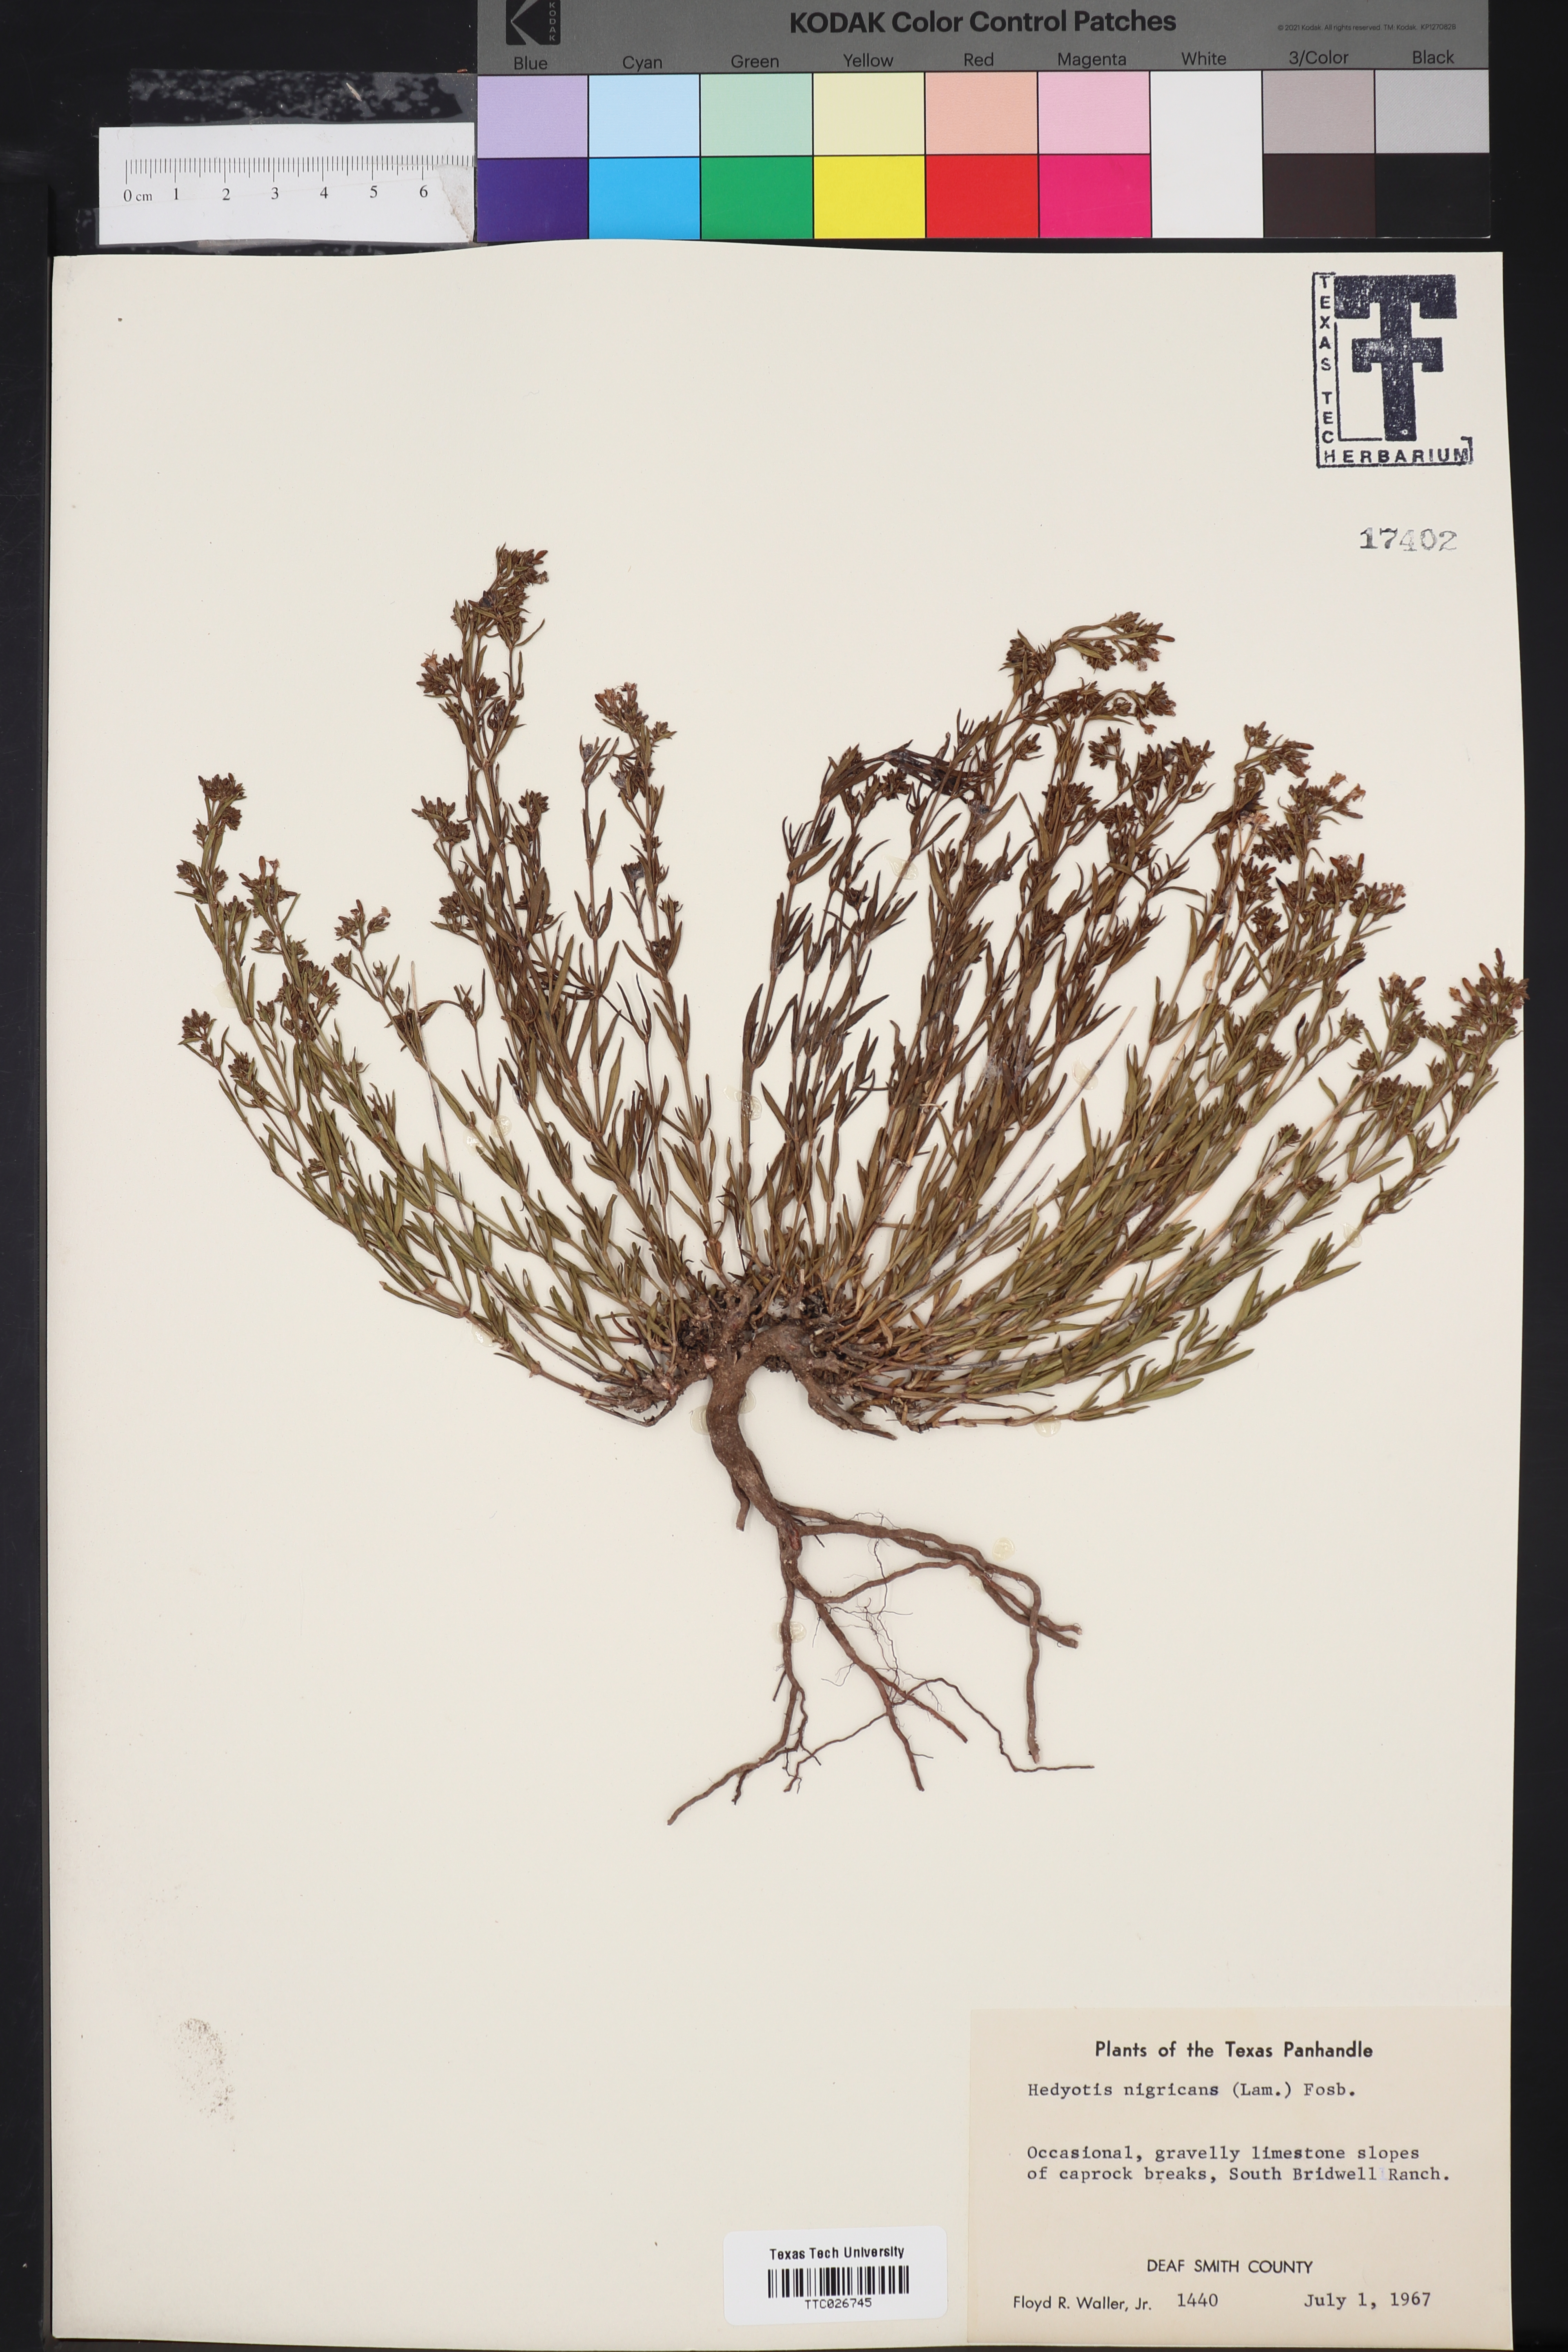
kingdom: Plantae
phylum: Tracheophyta
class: Magnoliopsida
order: Gentianales
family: Rubiaceae
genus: Stenaria
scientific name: Stenaria nigricans
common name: Diamondflowers
